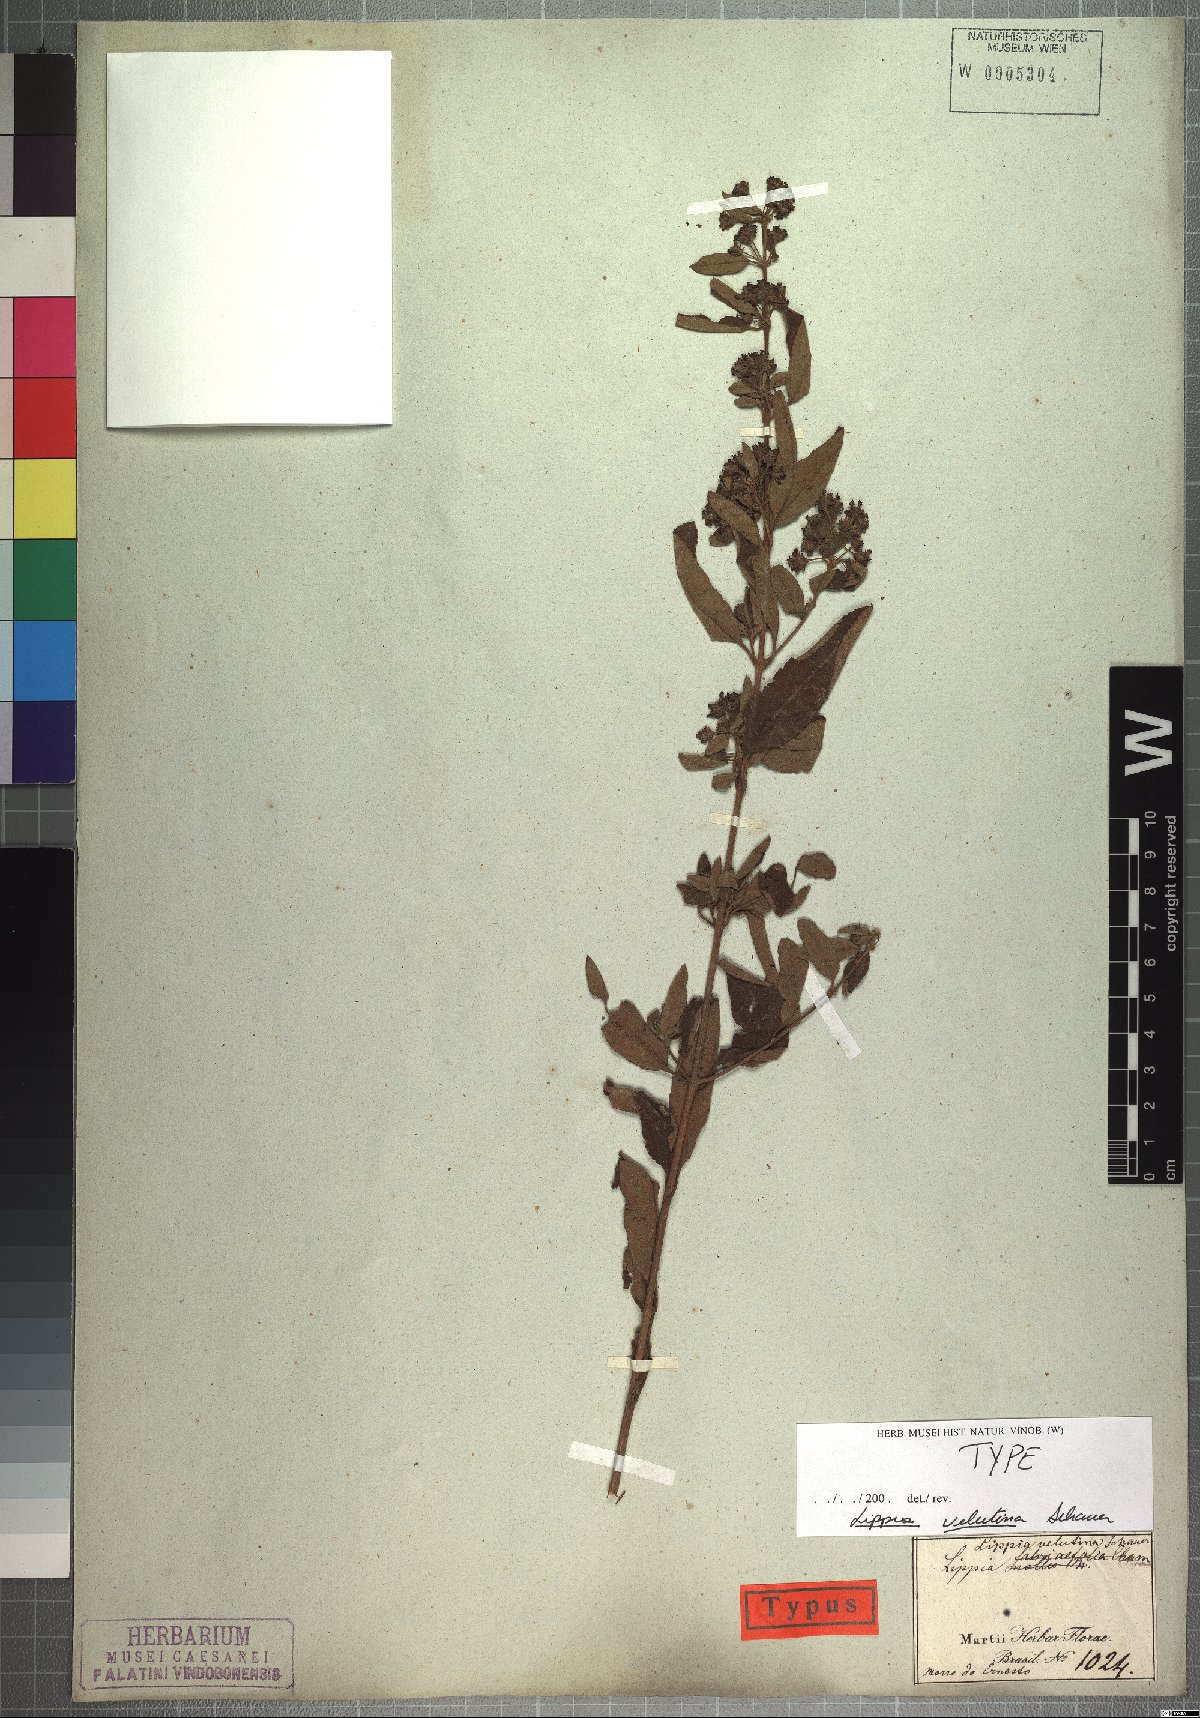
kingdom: Plantae
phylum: Tracheophyta
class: Magnoliopsida
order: Lamiales
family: Verbenaceae
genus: Lippia
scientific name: Lippia origanoides
